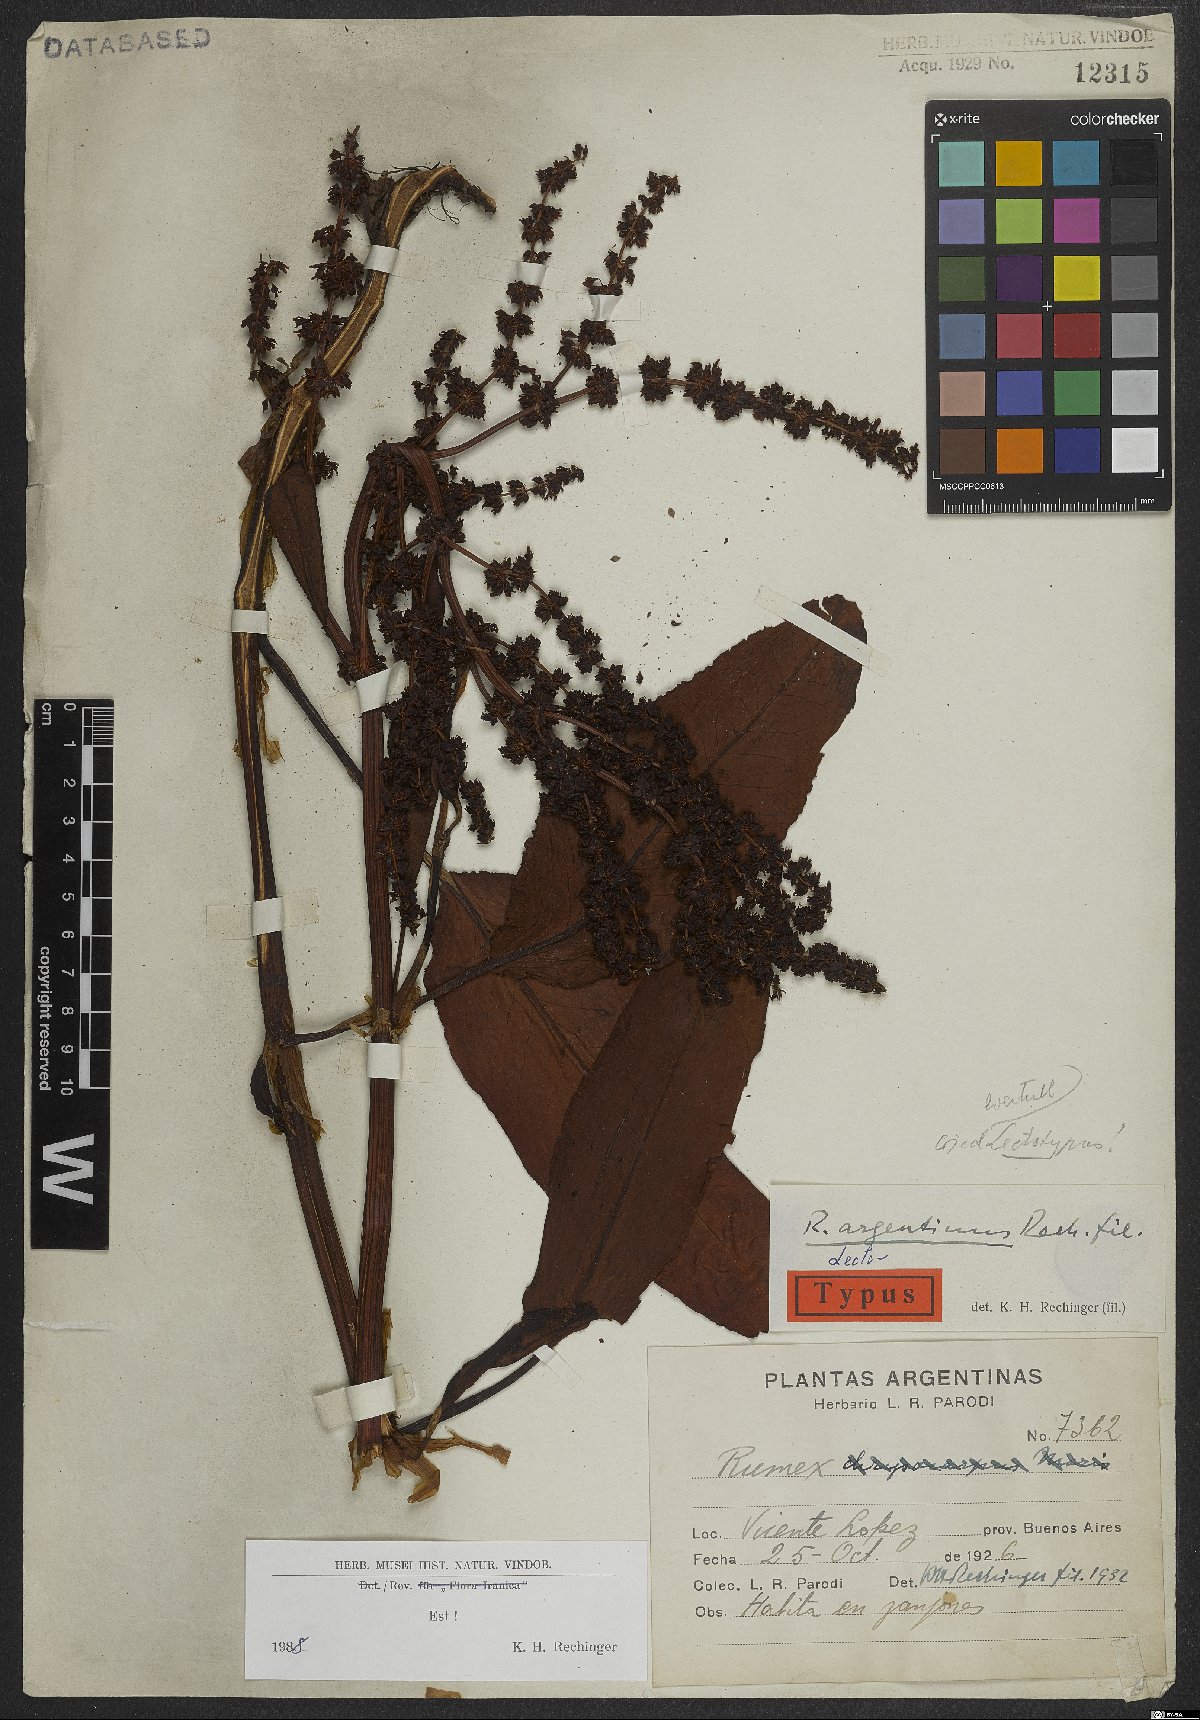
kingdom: Plantae
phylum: Tracheophyta
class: Magnoliopsida
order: Caryophyllales
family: Polygonaceae
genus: Rumex
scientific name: Rumex argentinus
